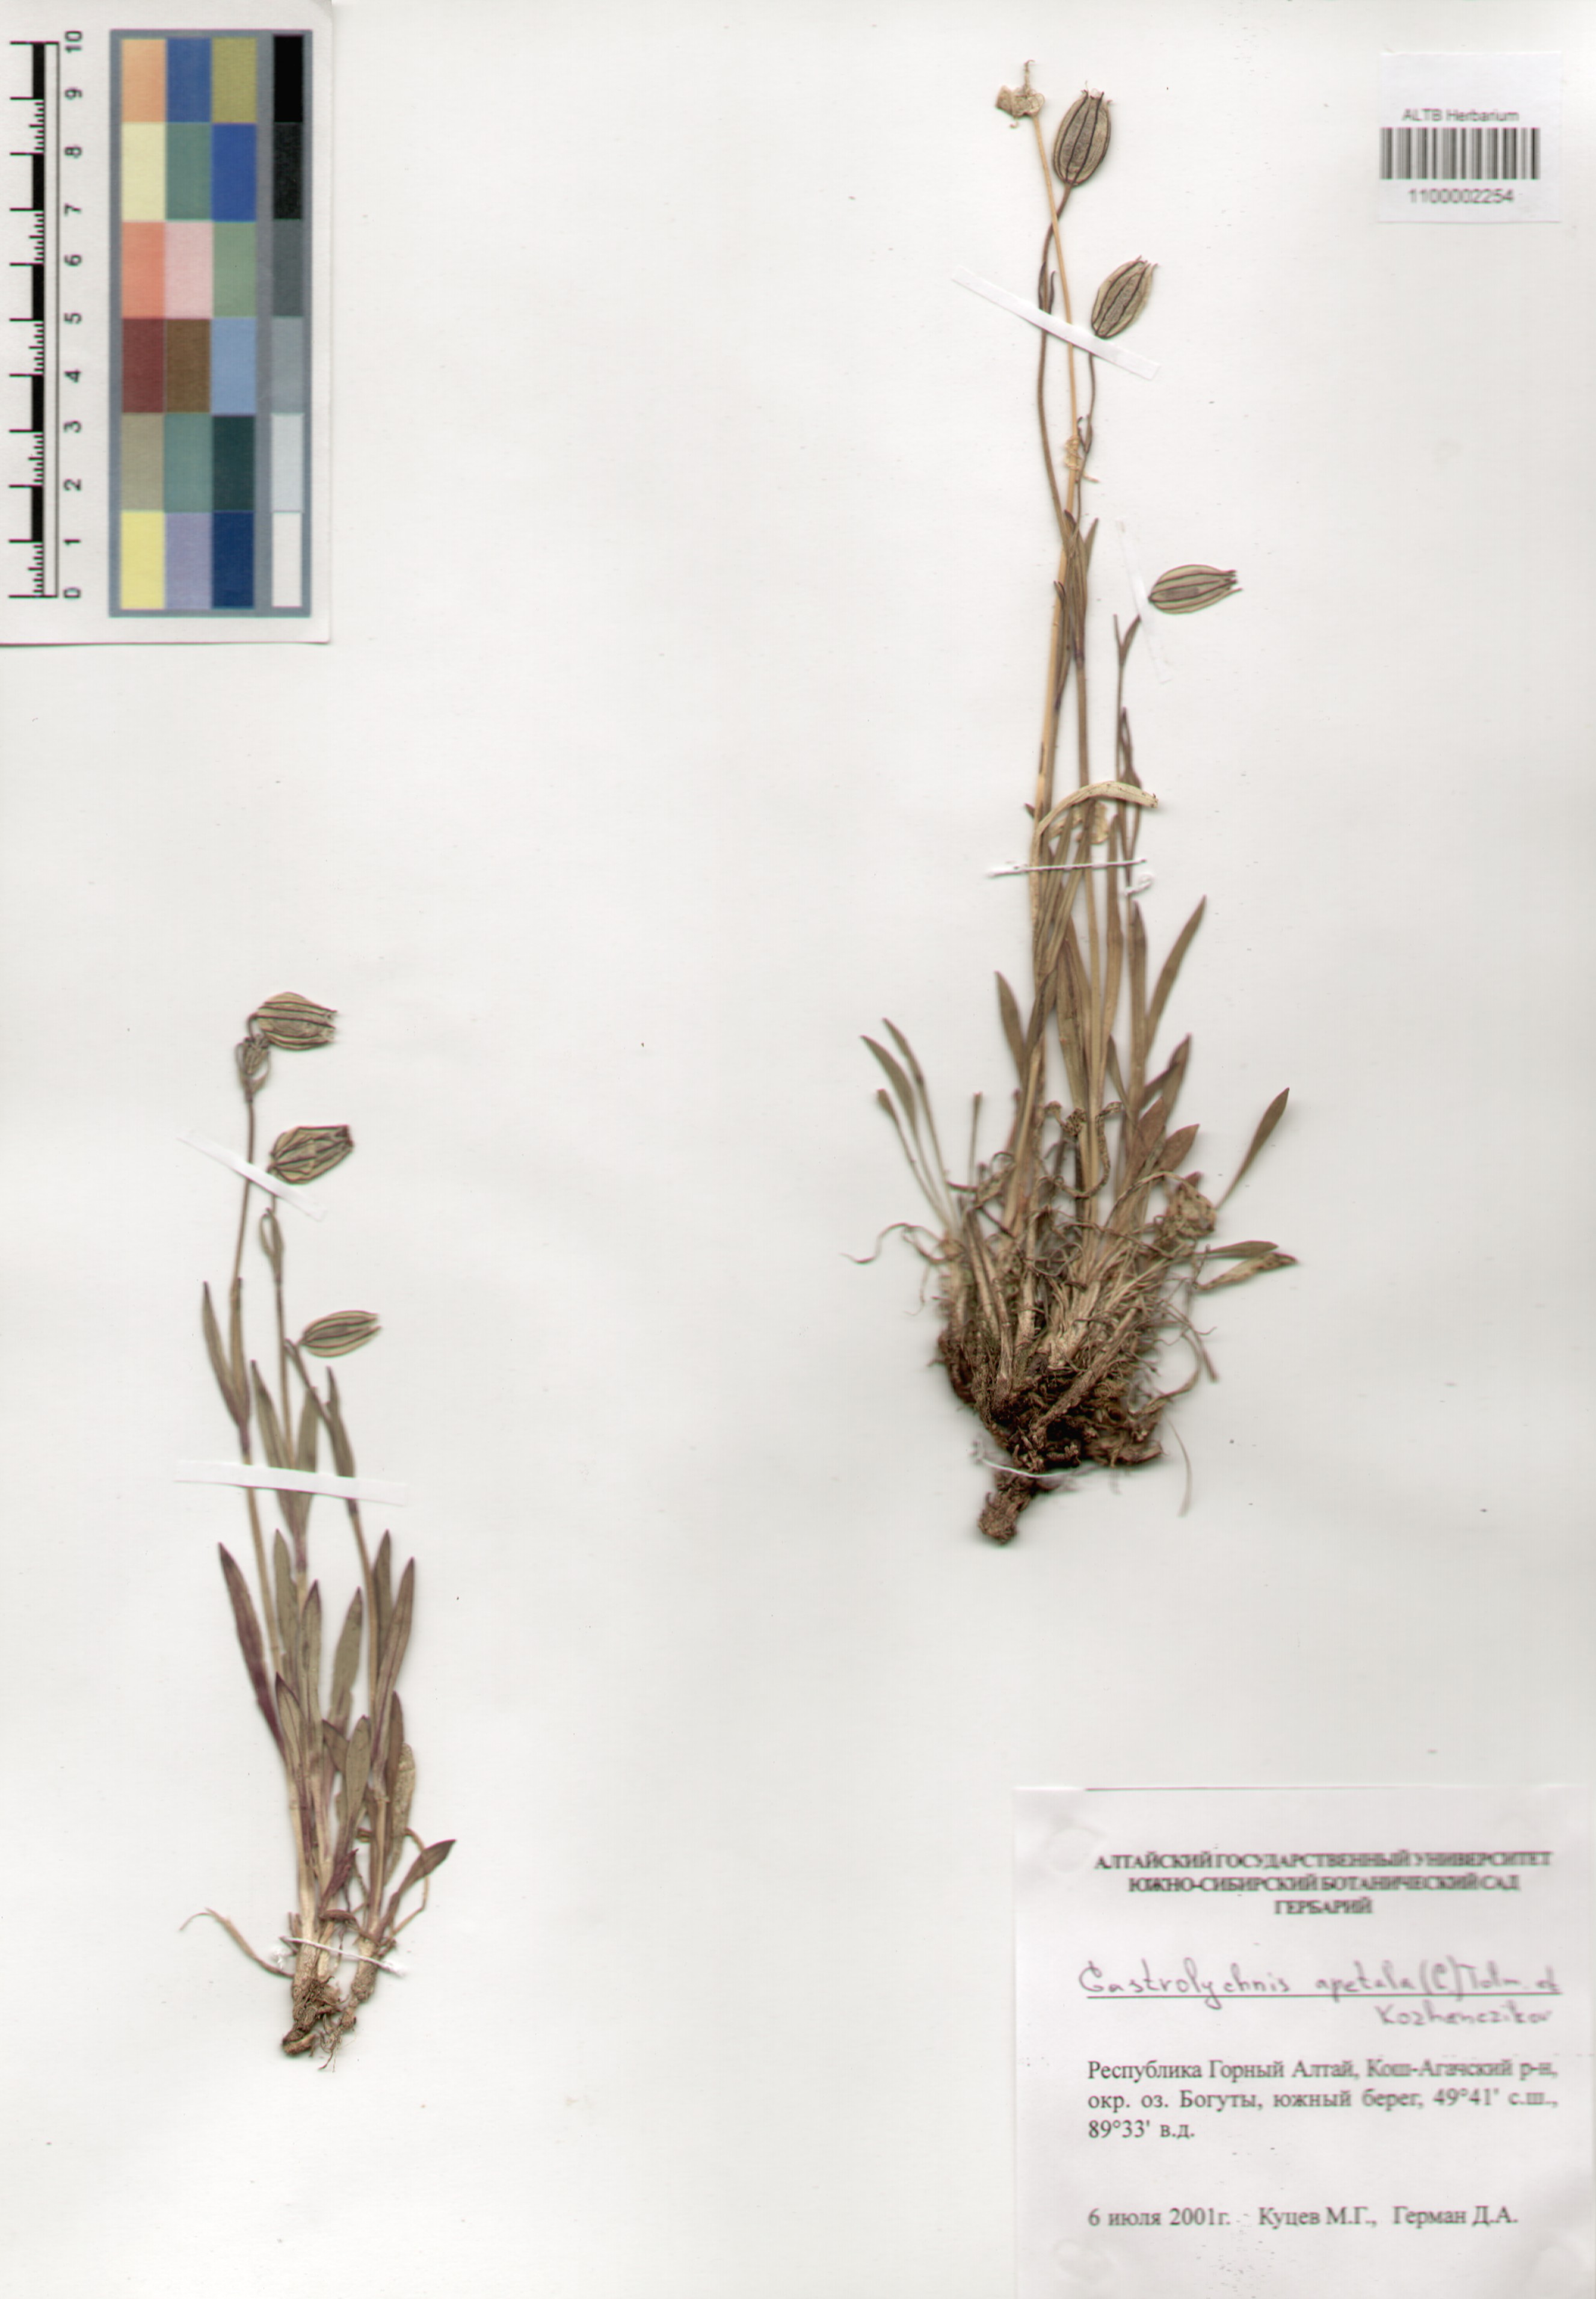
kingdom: Plantae
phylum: Tracheophyta
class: Magnoliopsida
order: Caryophyllales
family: Caryophyllaceae
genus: Silene
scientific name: Silene wahlbergella
